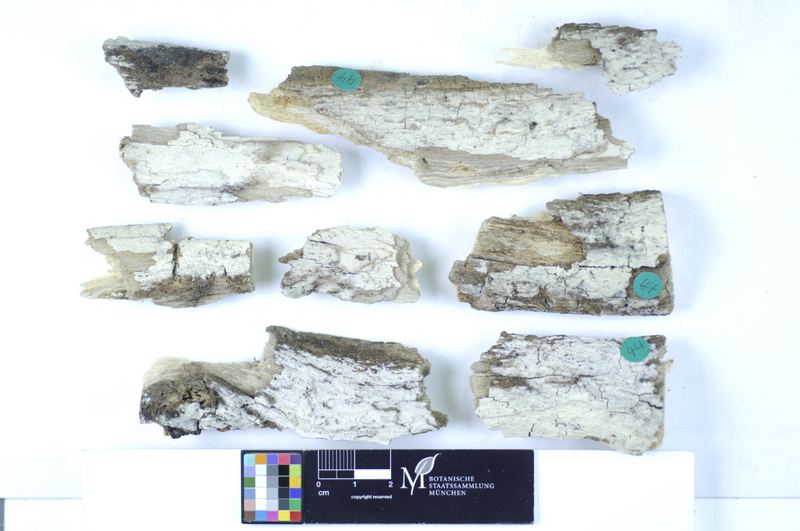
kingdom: Fungi
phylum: Basidiomycota
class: Agaricomycetes
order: Hymenochaetales
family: Rickenellaceae
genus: Peniophorella
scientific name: Peniophorella praetermissa
